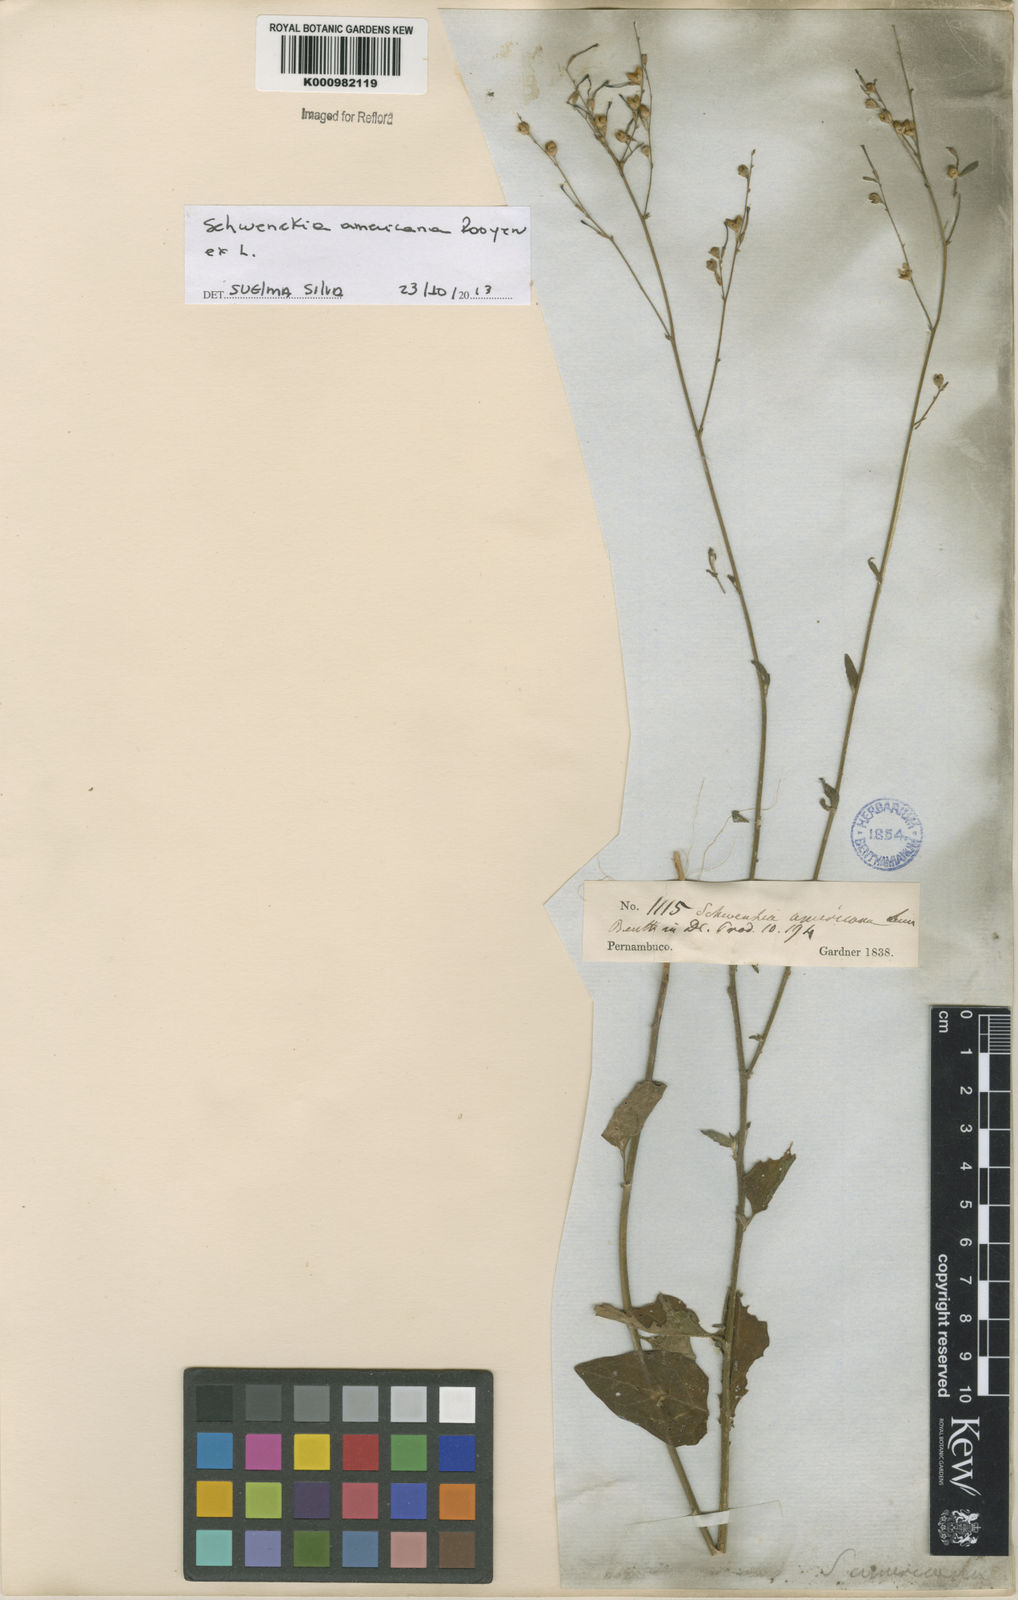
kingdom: Plantae
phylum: Tracheophyta
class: Magnoliopsida
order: Solanales
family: Solanaceae
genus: Schwenckia
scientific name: Schwenckia americana
